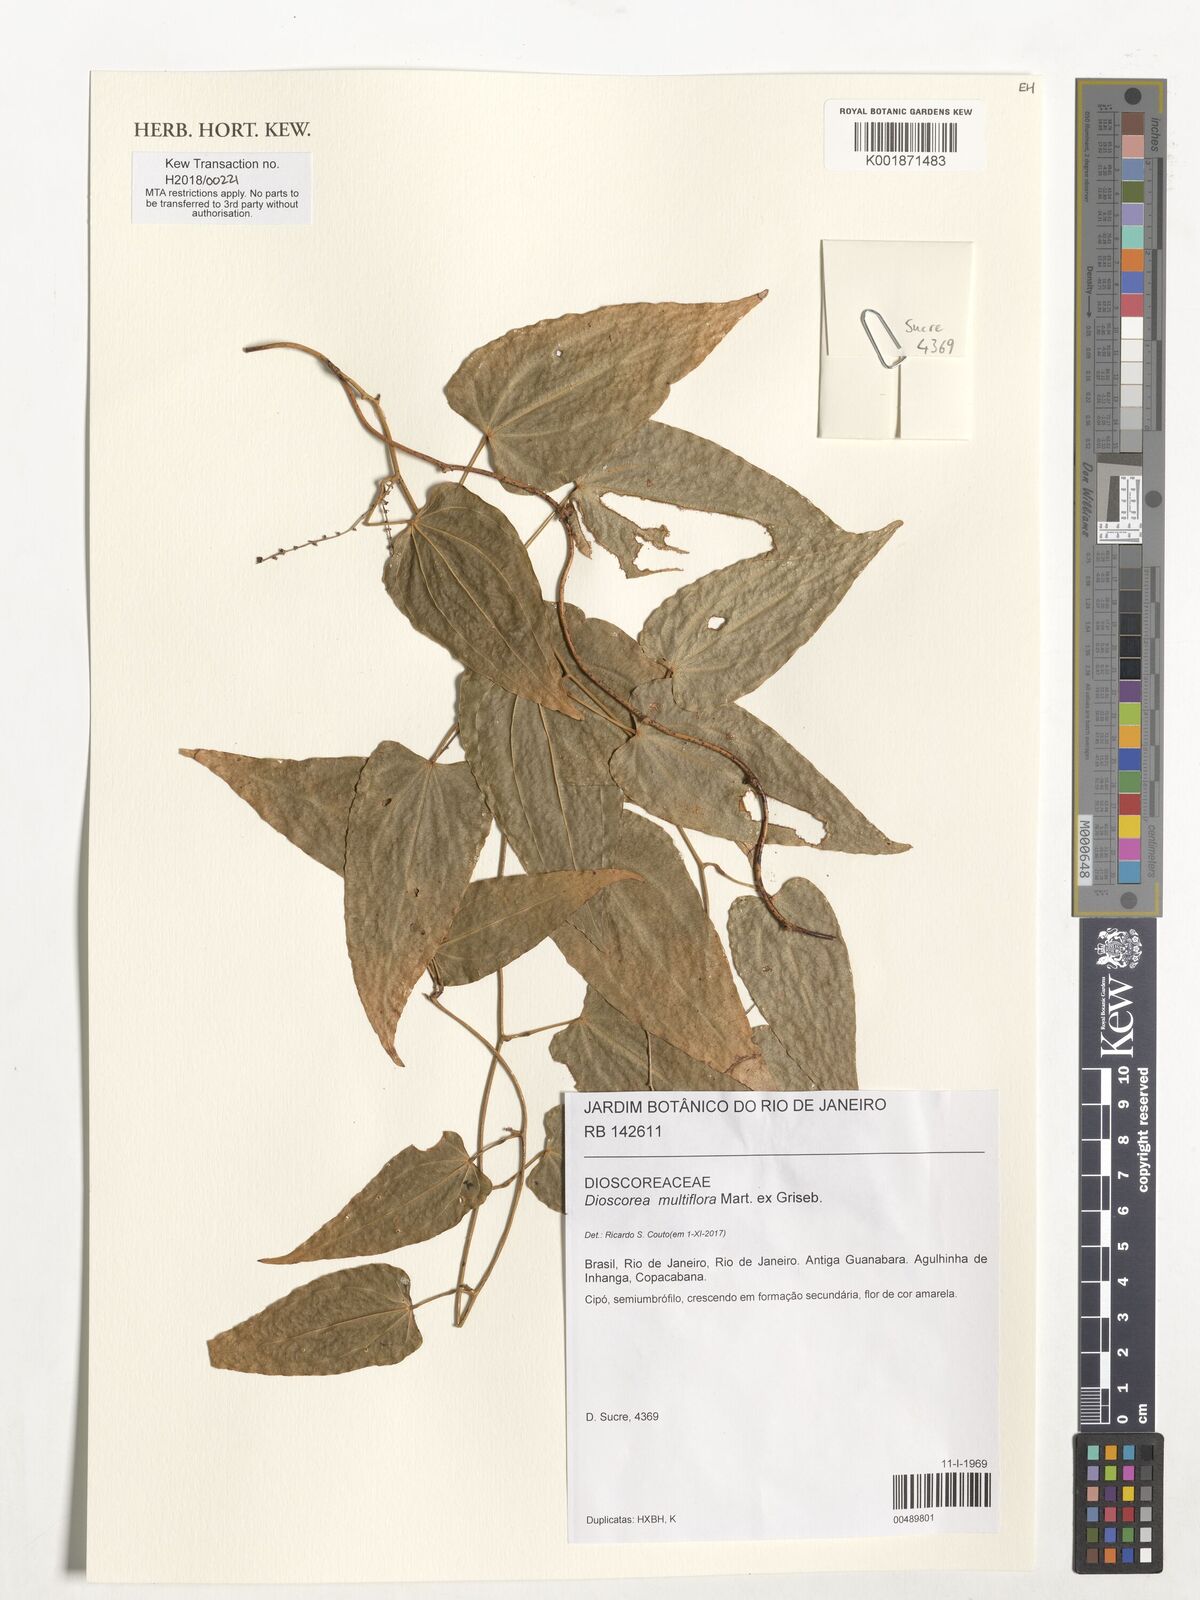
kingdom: Plantae
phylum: Tracheophyta
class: Liliopsida
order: Dioscoreales
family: Dioscoreaceae
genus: Dioscorea
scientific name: Dioscorea multiflora
